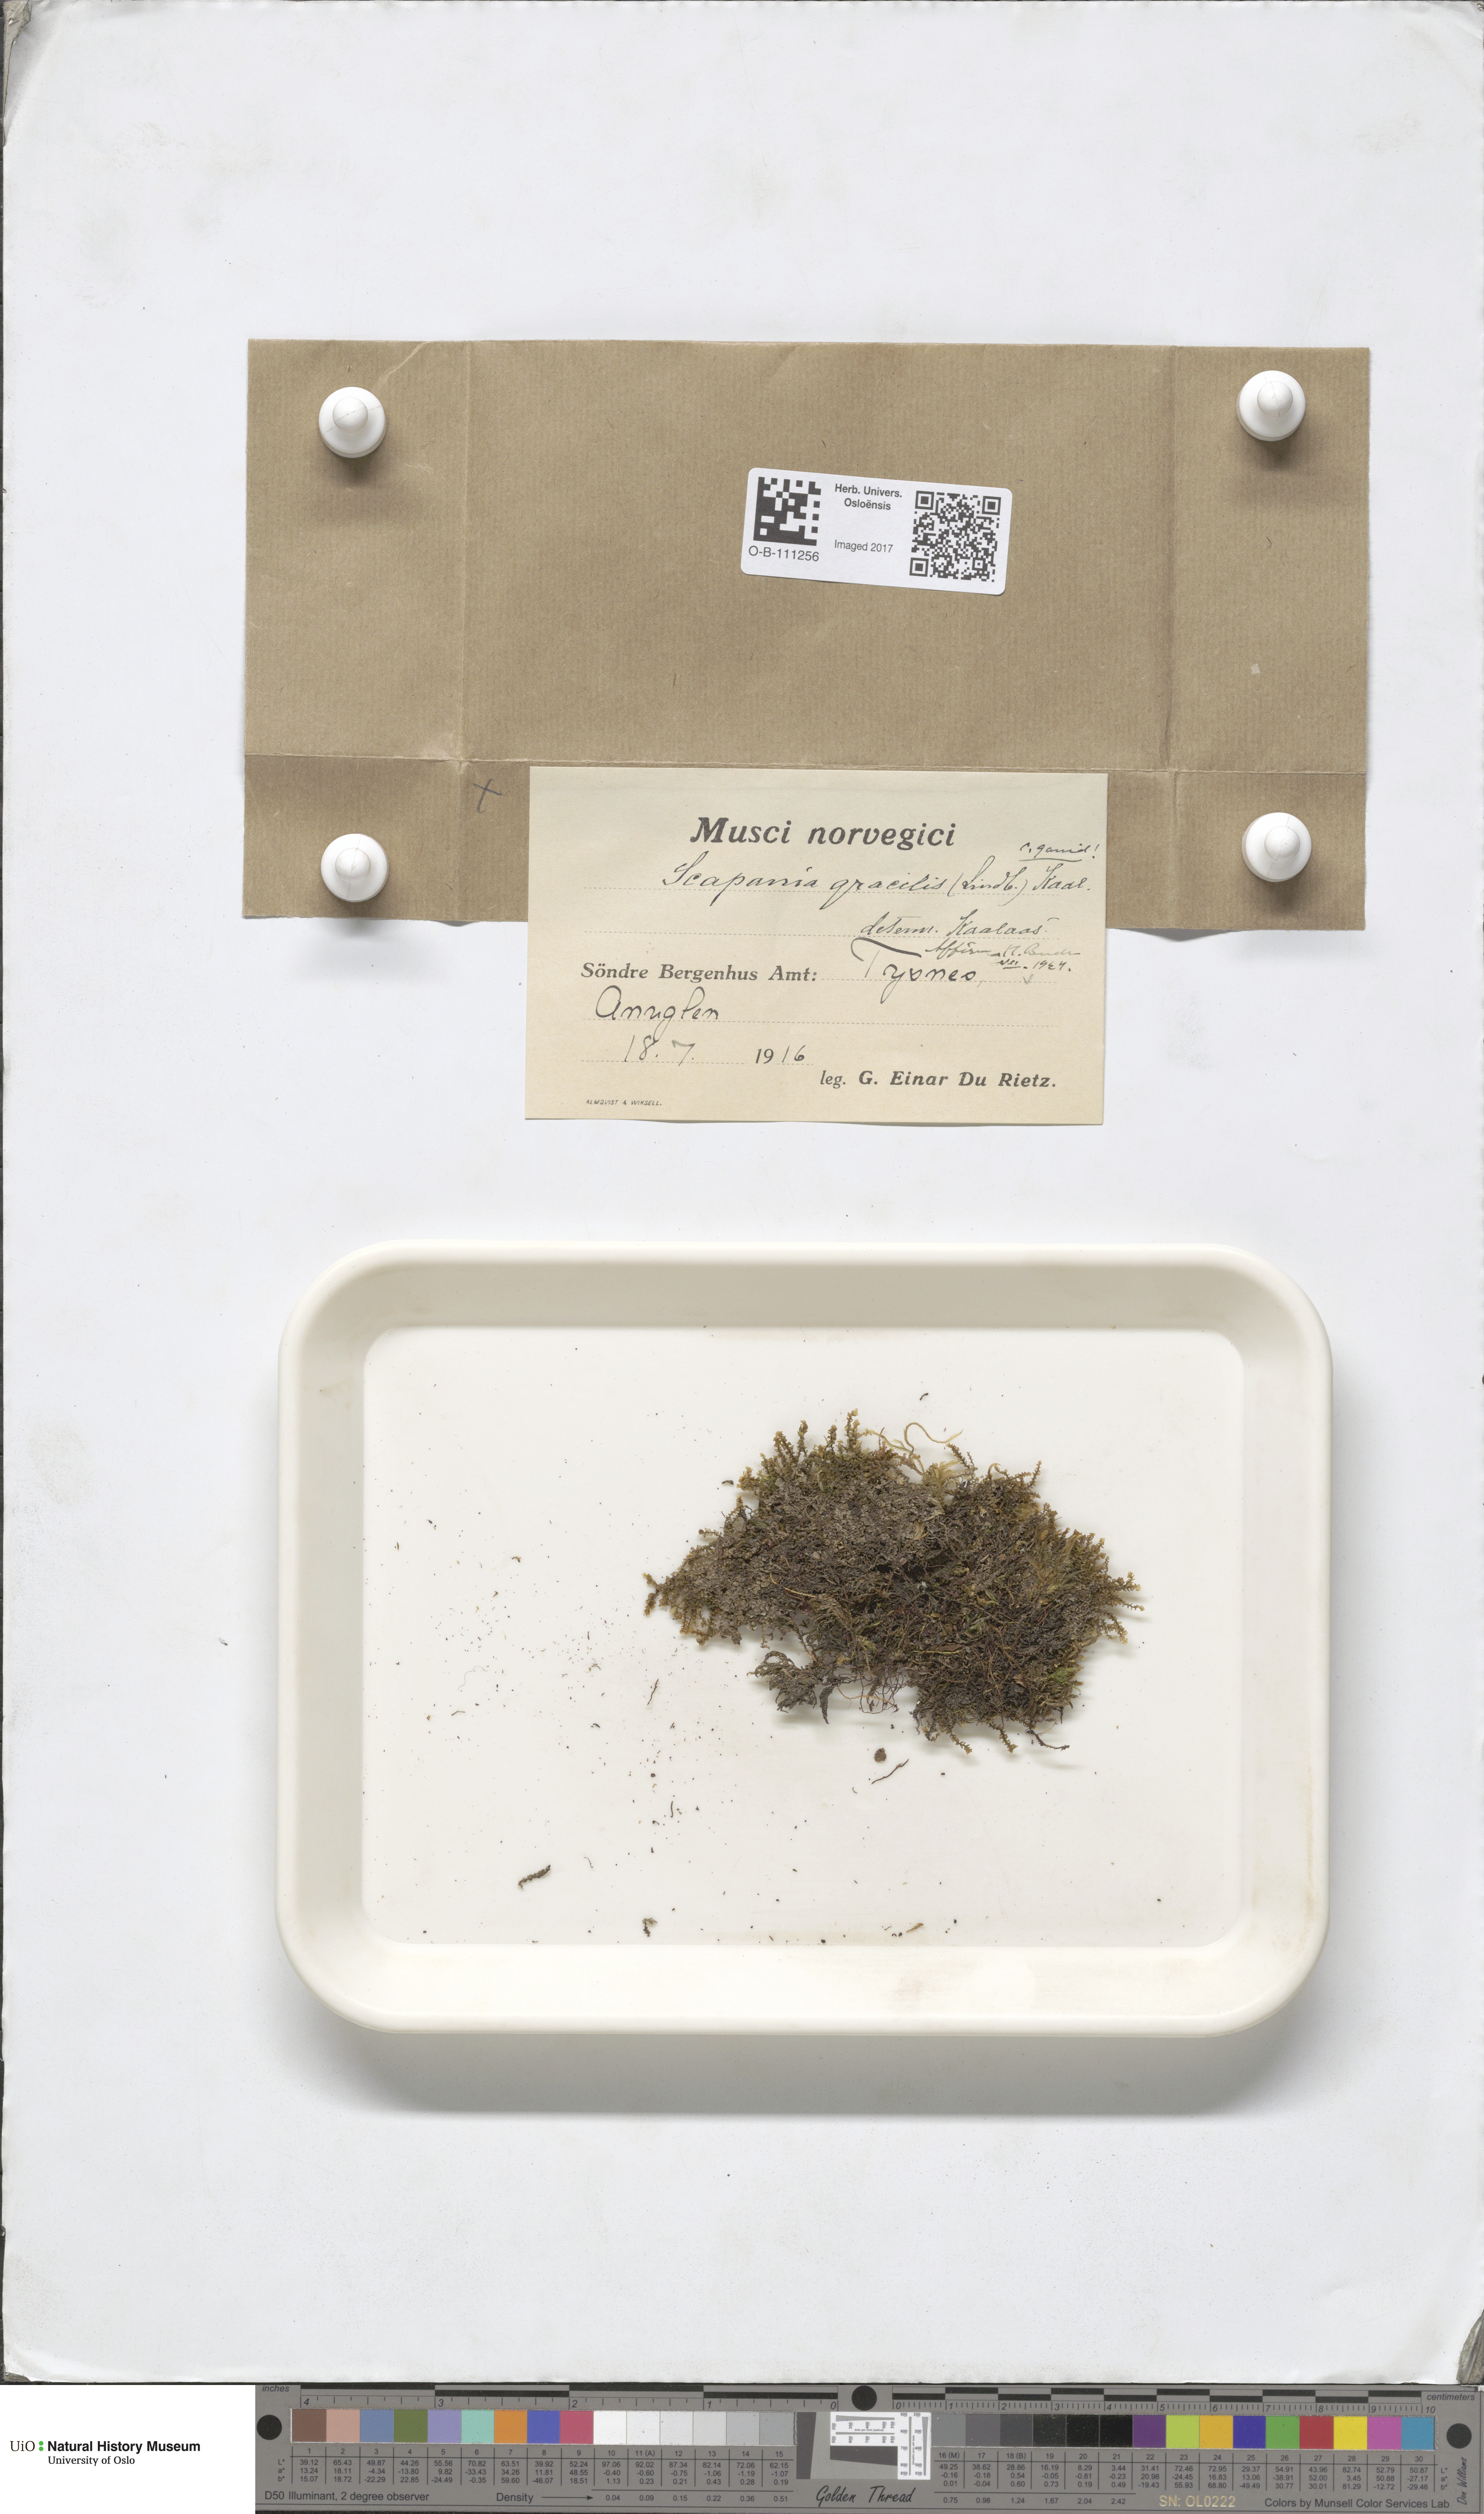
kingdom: Plantae
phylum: Marchantiophyta
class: Jungermanniopsida
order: Jungermanniales
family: Scapaniaceae
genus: Scapania
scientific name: Scapania gracilis
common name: Western earwort
